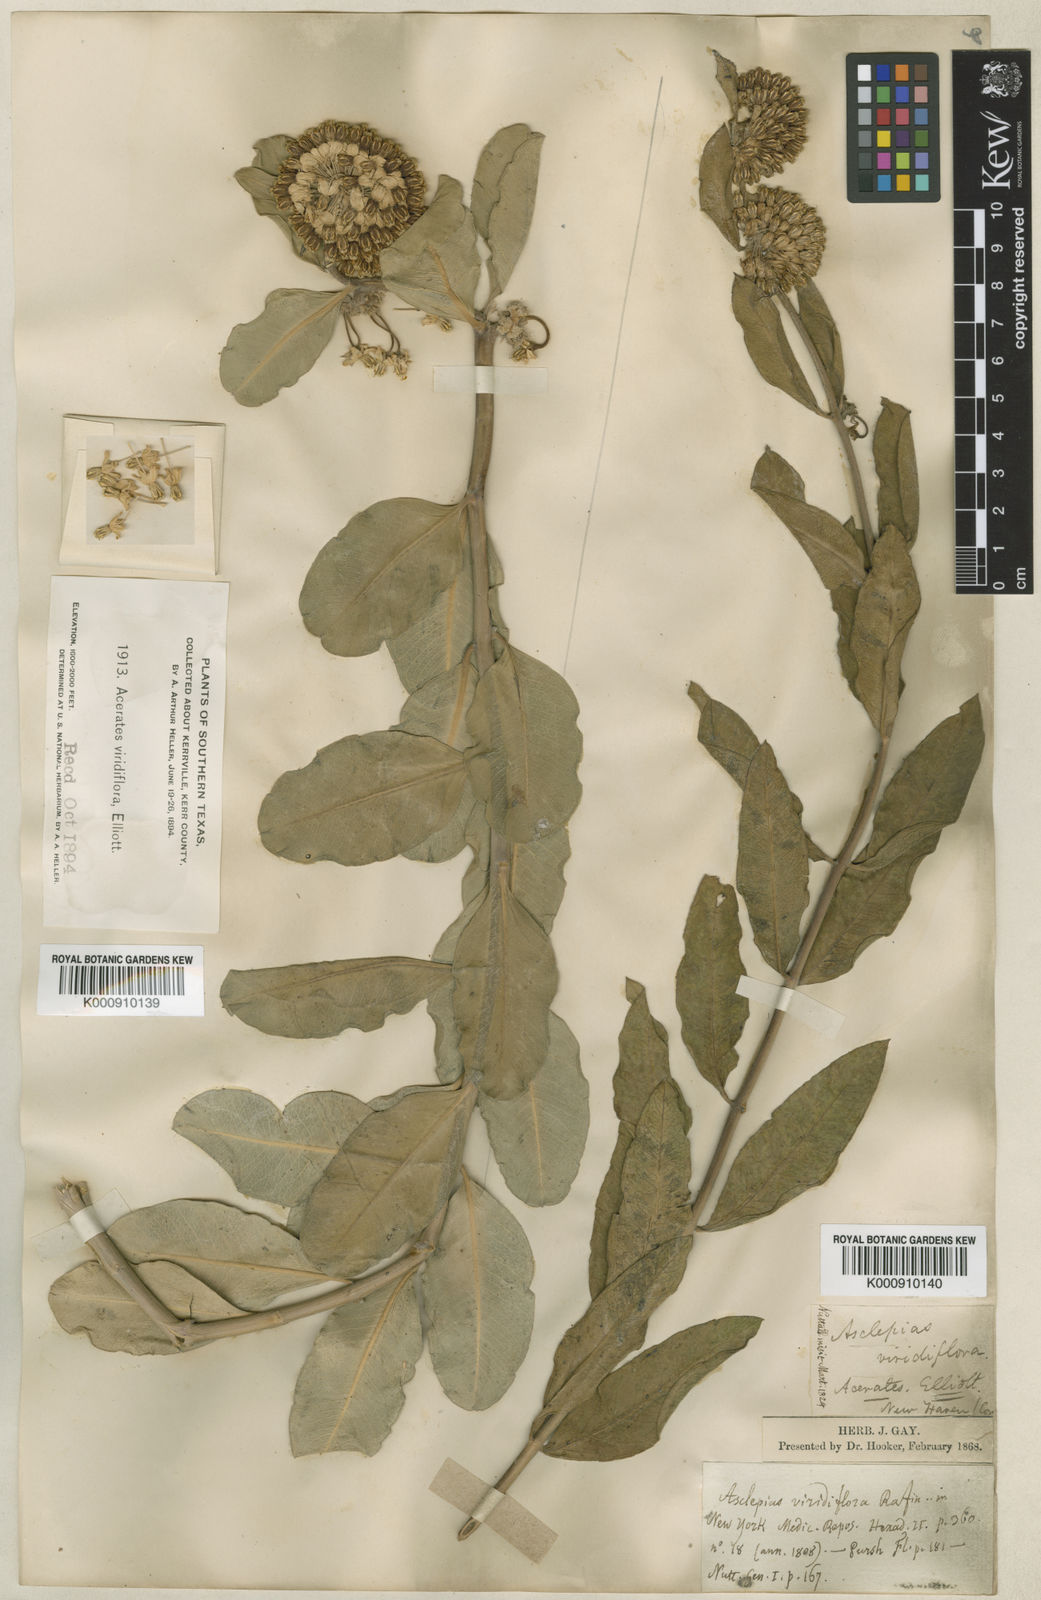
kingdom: Plantae
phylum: Tracheophyta
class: Magnoliopsida
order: Gentianales
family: Apocynaceae
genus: Asclepias
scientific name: Asclepias
